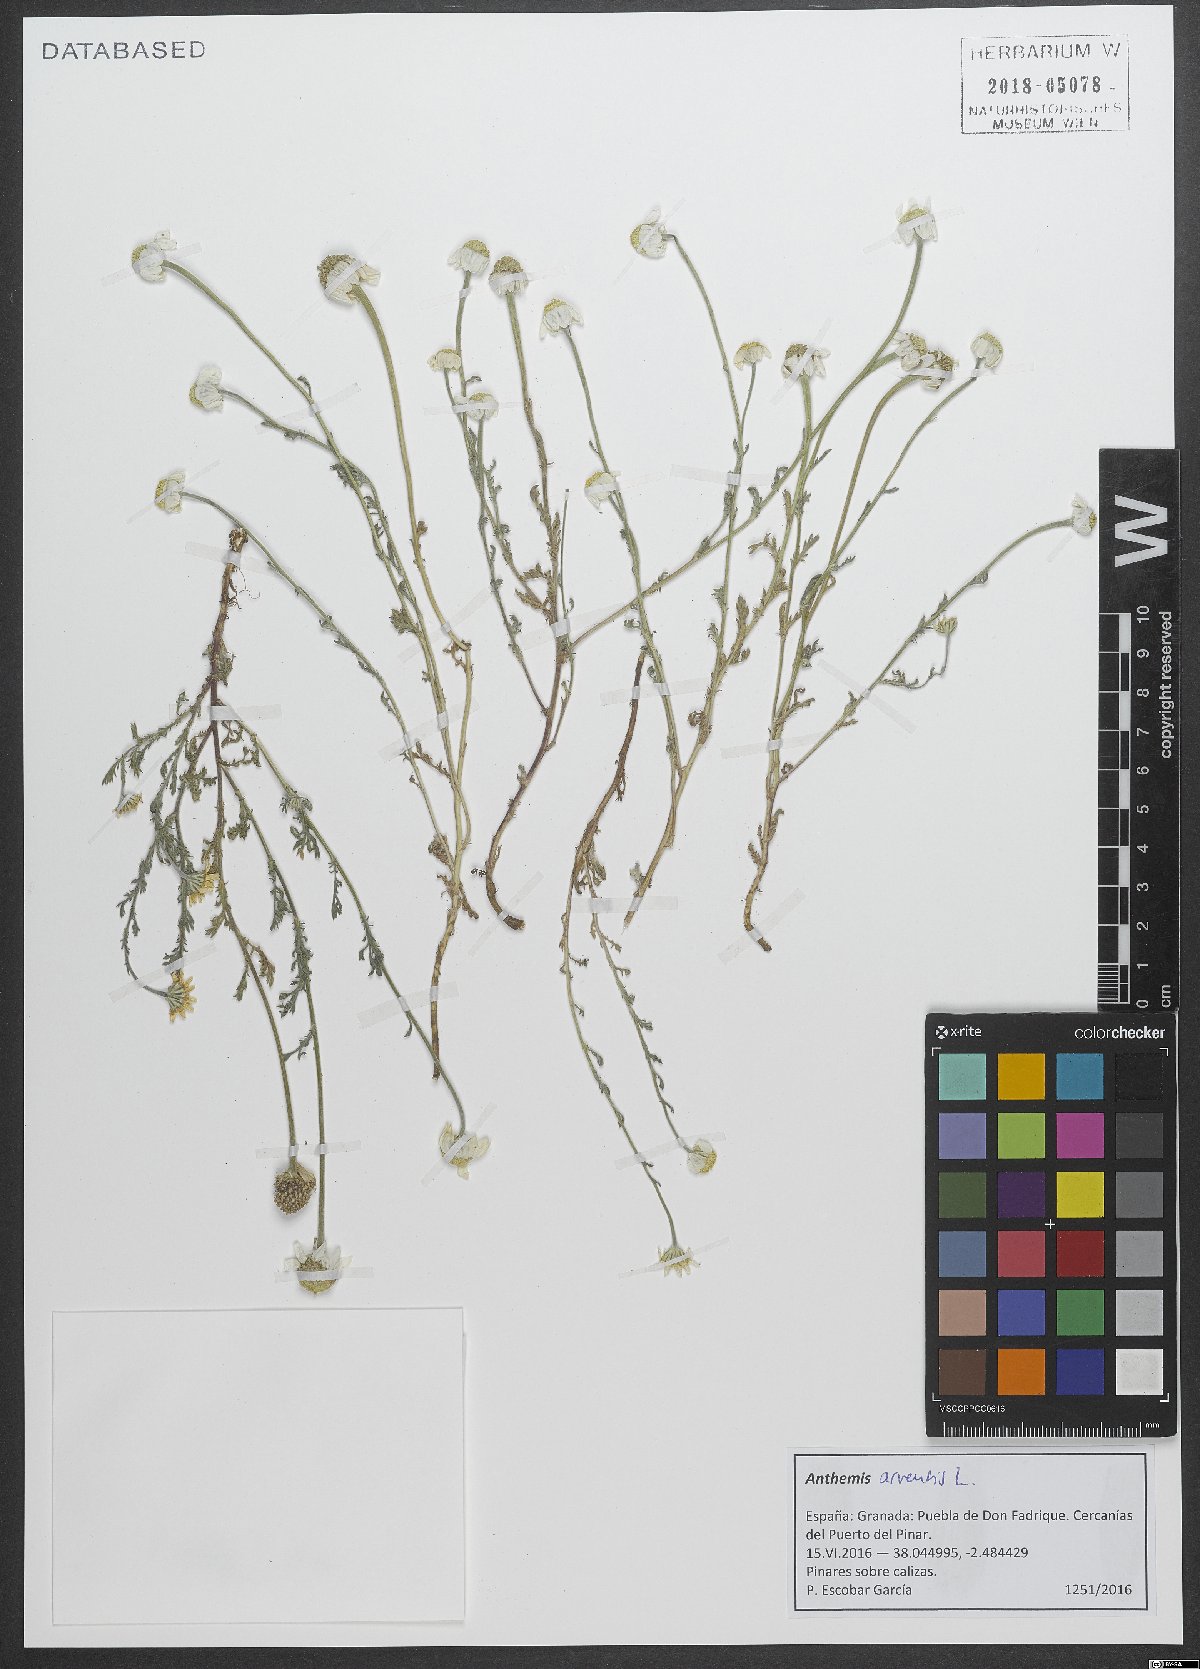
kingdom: Plantae
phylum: Tracheophyta
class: Magnoliopsida
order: Asterales
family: Asteraceae
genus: Anthemis
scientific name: Anthemis arvensis
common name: Corn chamomile
